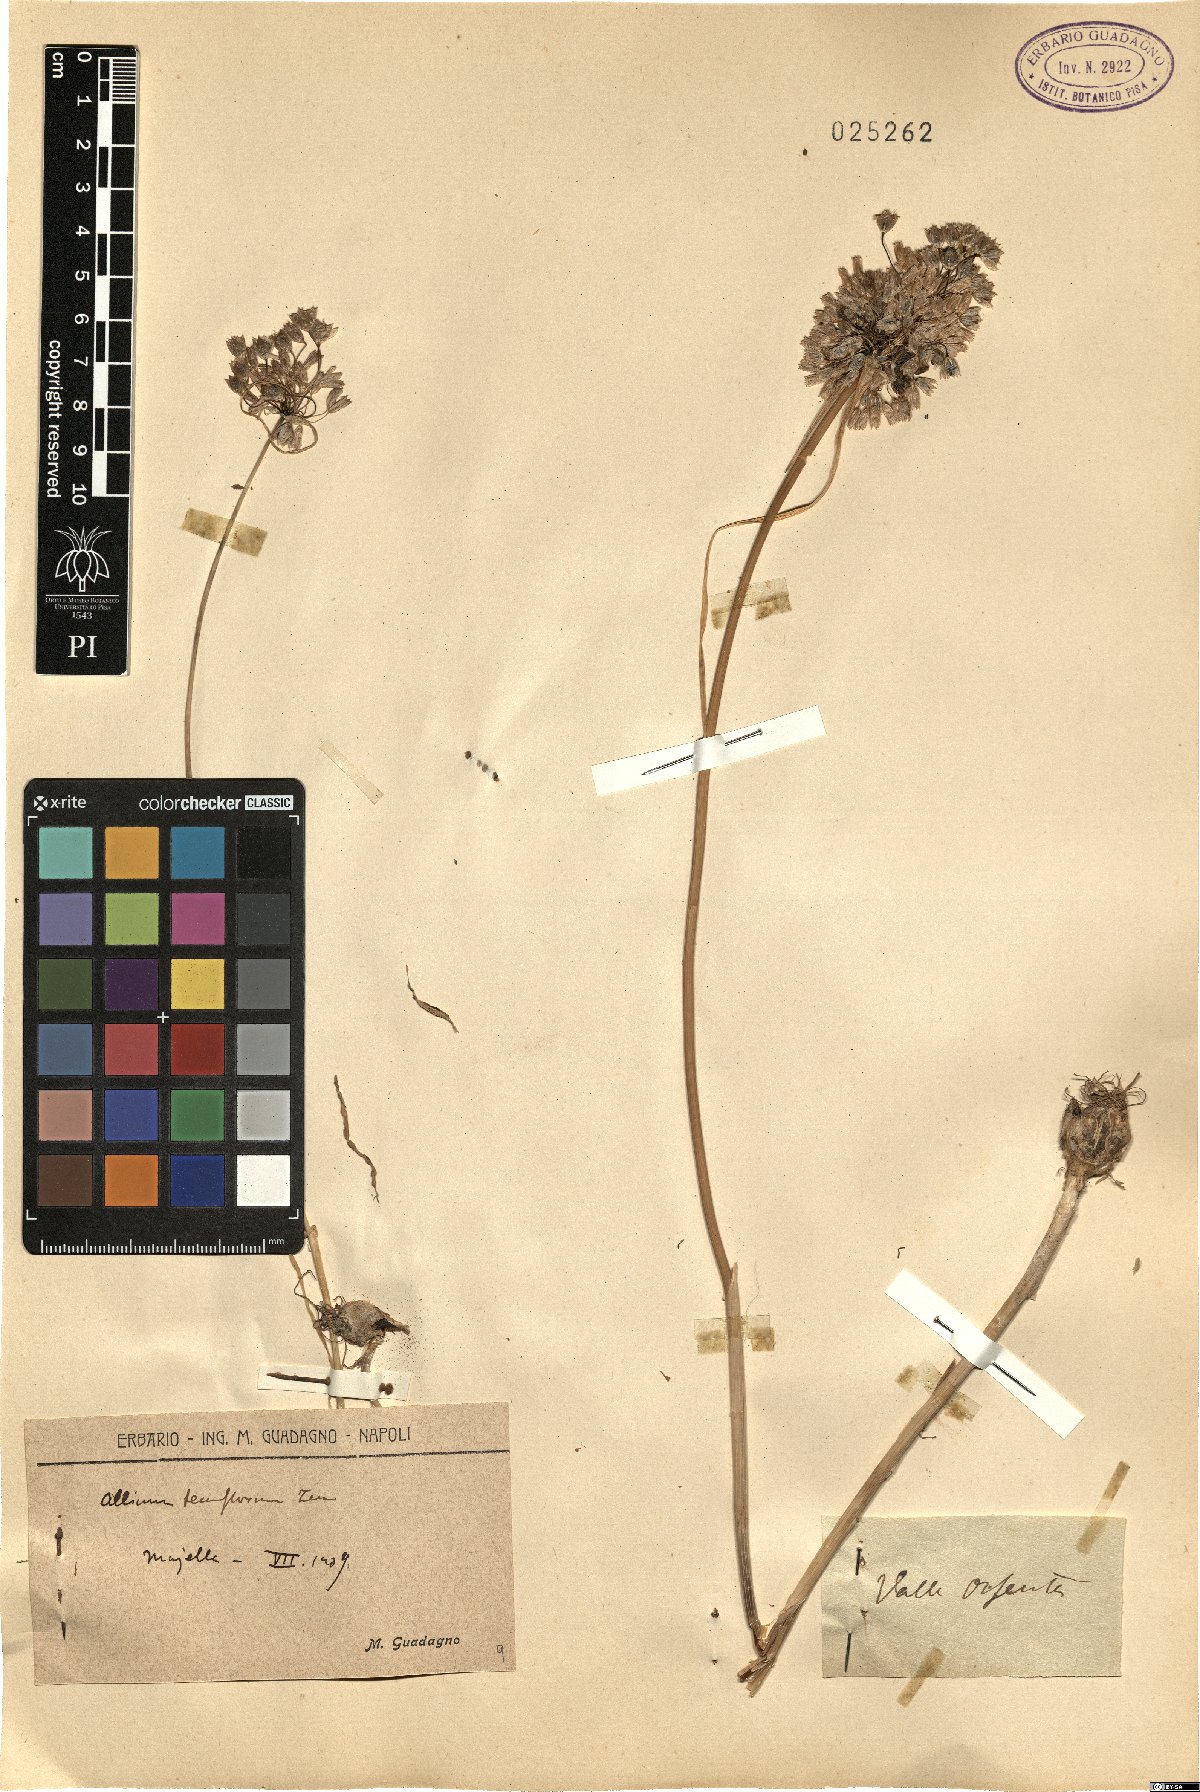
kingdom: Plantae
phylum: Tracheophyta
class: Liliopsida
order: Asparagales
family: Amaryllidaceae
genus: Allium
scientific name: Allium tenuiflorum
